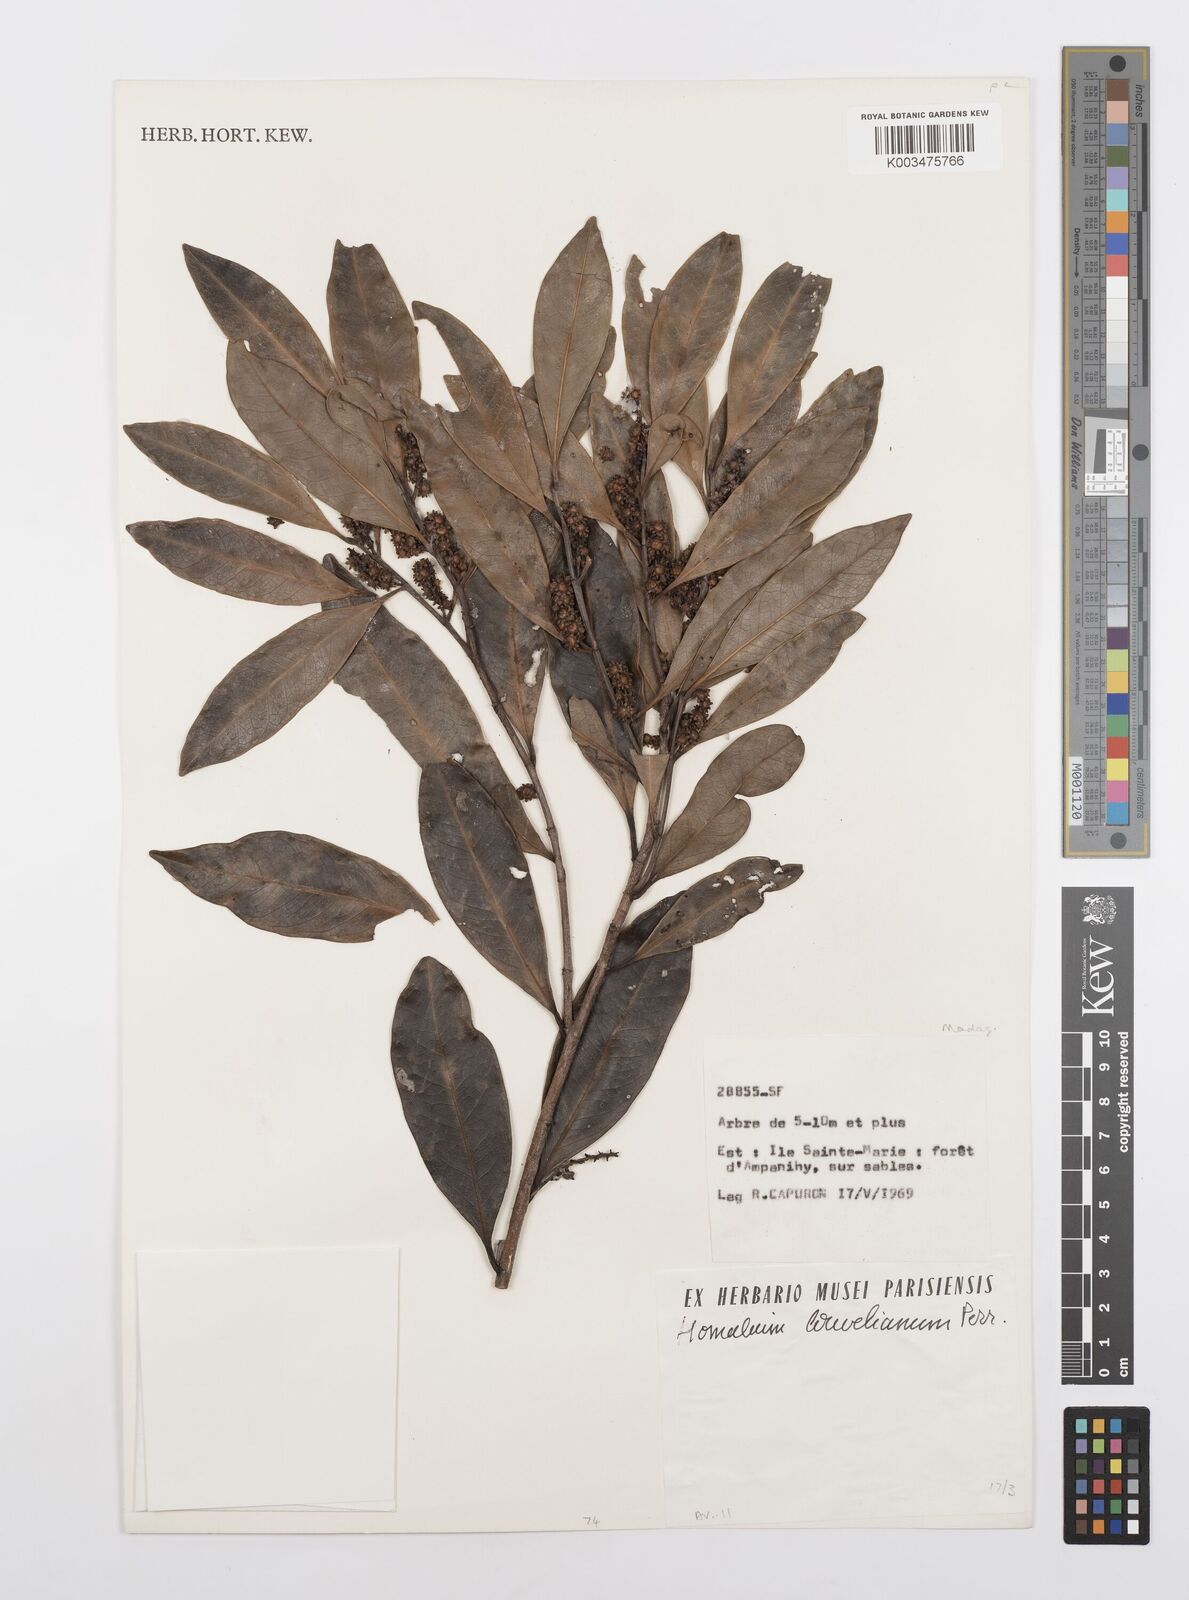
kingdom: Plantae
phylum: Tracheophyta
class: Magnoliopsida
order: Malpighiales
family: Salicaceae
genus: Homalium
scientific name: Homalium louvelianum
